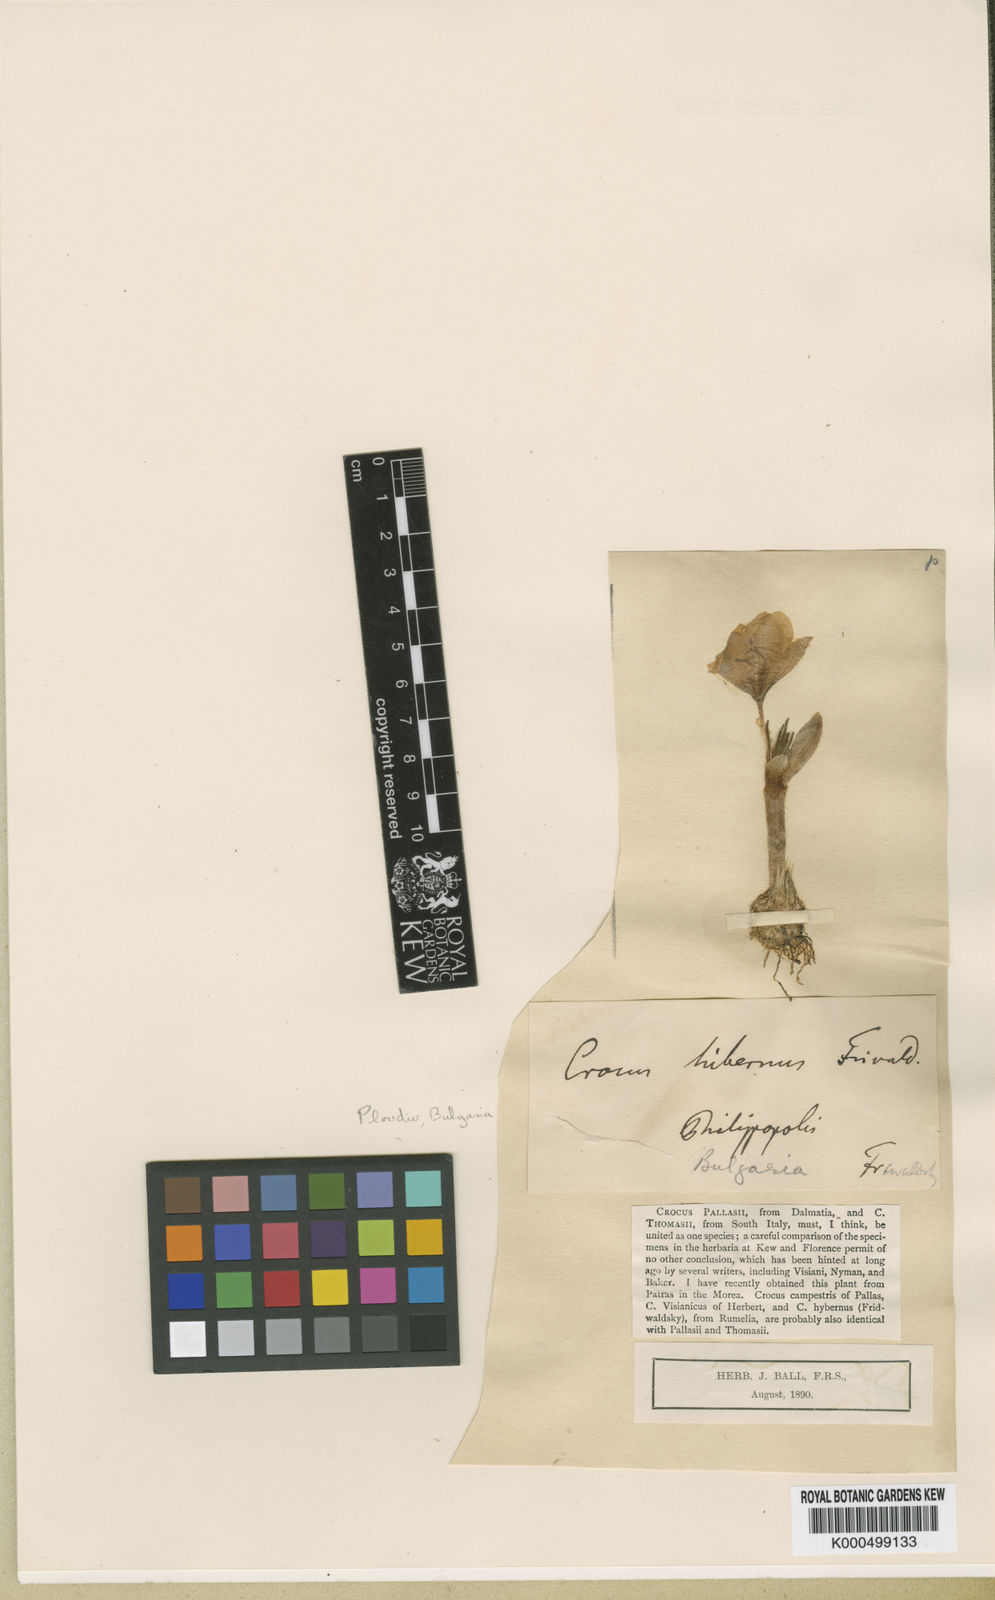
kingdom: Plantae
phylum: Tracheophyta
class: Liliopsida
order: Asparagales
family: Iridaceae
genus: Crocus
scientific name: Crocus pallasii
